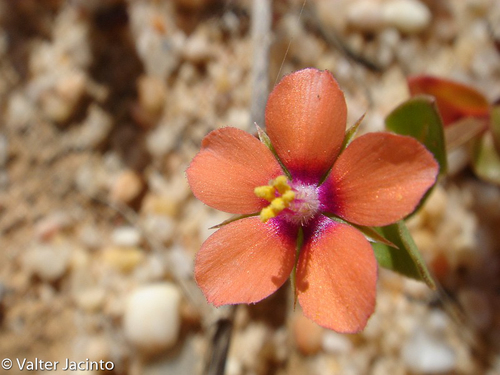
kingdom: Plantae
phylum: Tracheophyta
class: Magnoliopsida
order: Ericales
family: Primulaceae
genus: Lysimachia
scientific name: Lysimachia arvensis
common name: Scarlet pimpernel
